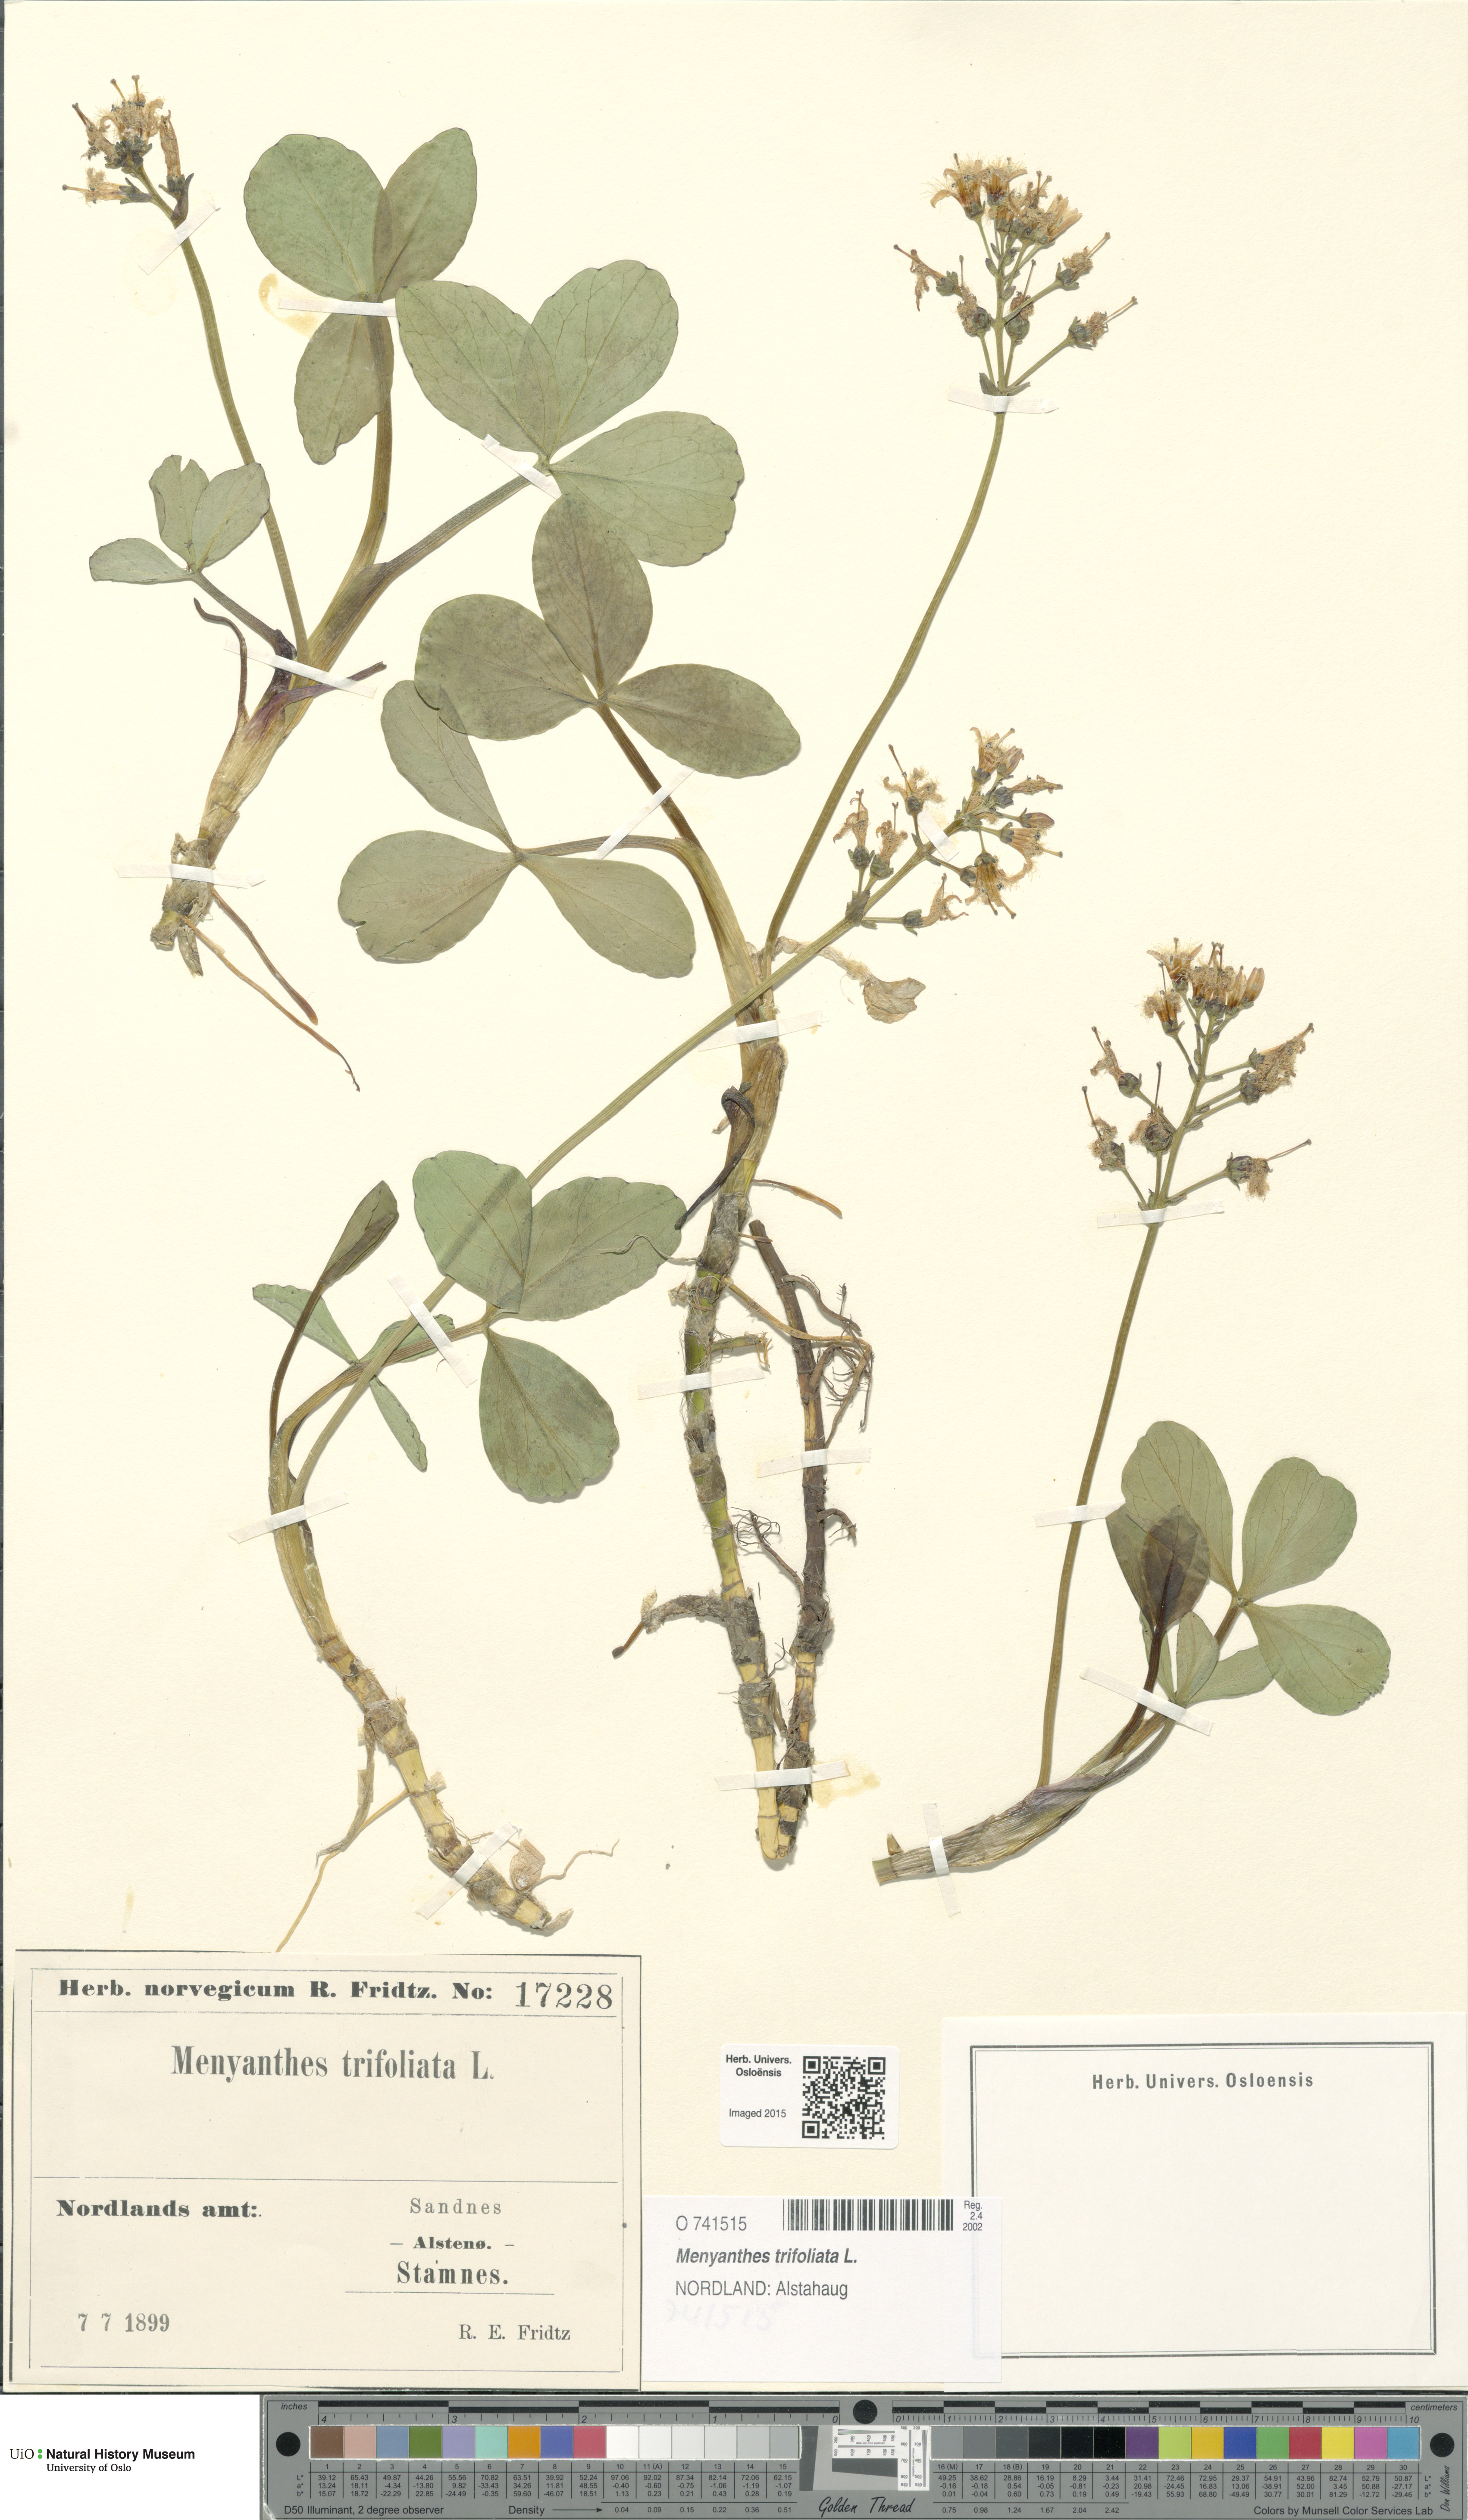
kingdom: Plantae
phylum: Tracheophyta
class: Magnoliopsida
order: Asterales
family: Menyanthaceae
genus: Menyanthes
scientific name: Menyanthes trifoliata
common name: Bogbean
